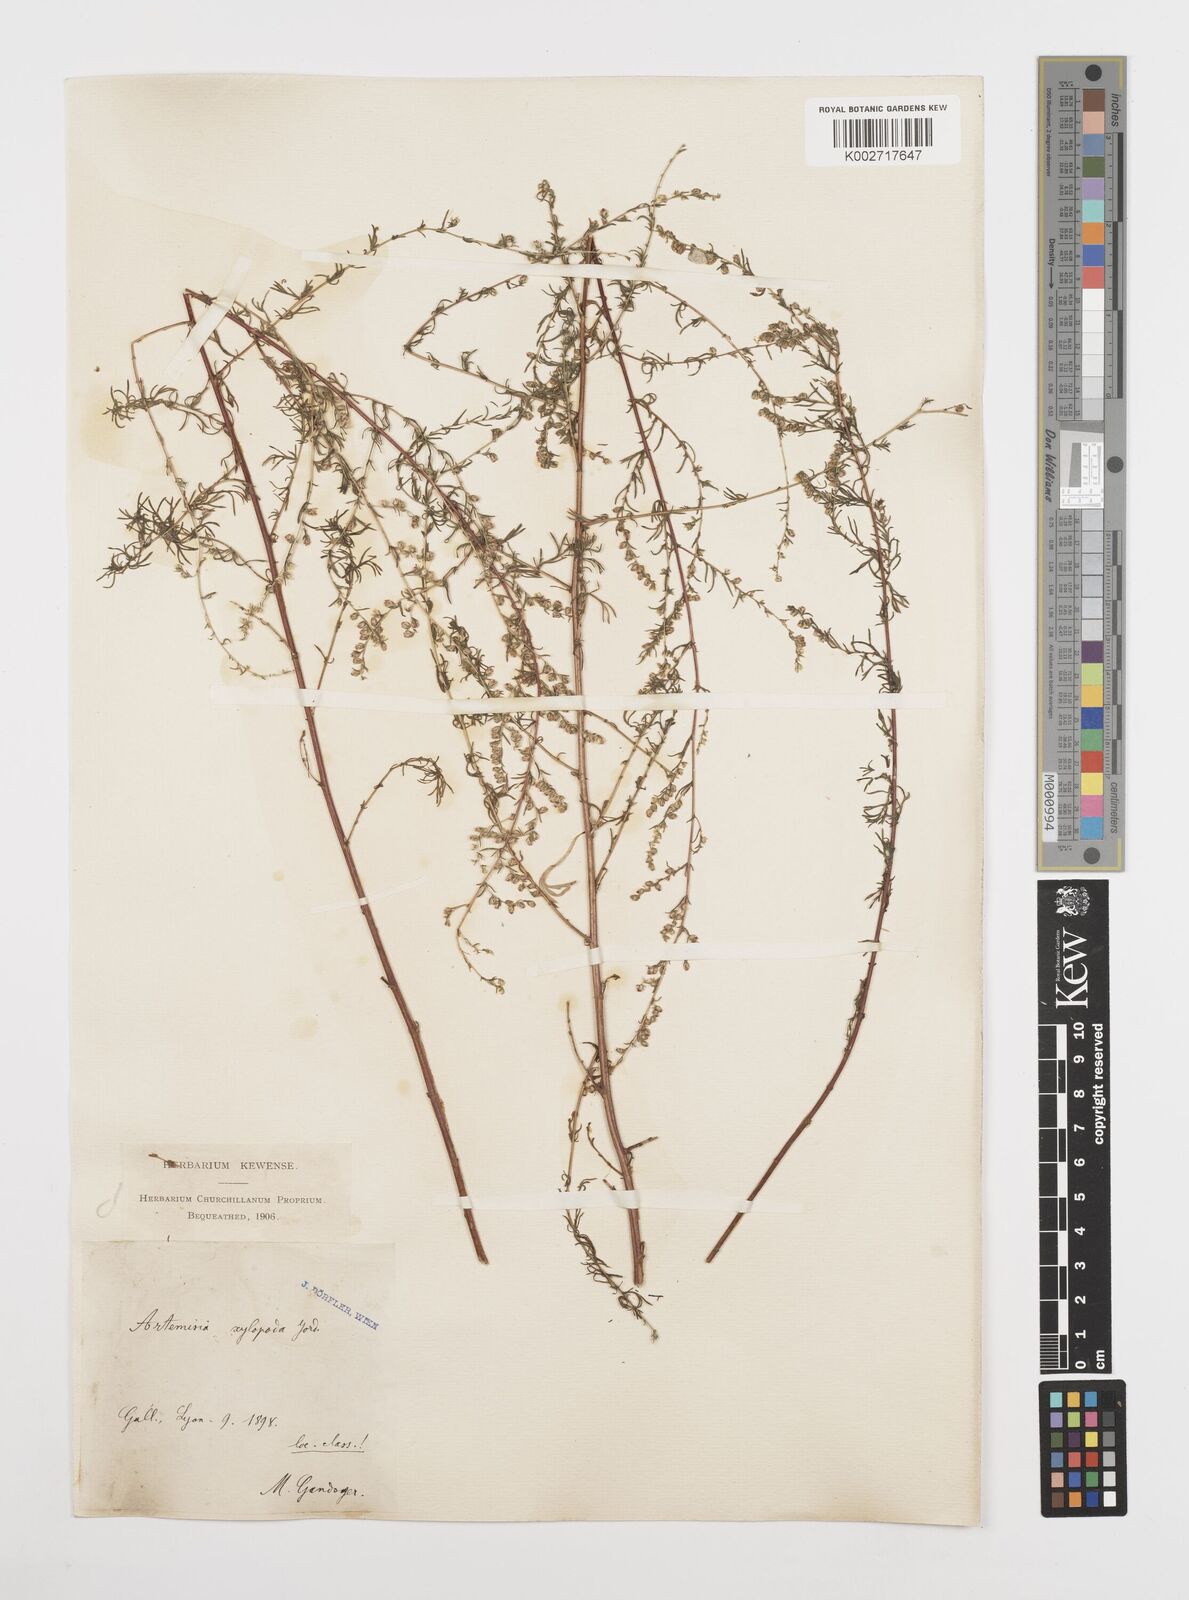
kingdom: Plantae
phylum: Tracheophyta
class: Magnoliopsida
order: Asterales
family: Asteraceae
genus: Artemisia
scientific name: Artemisia campestris
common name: Field wormwood
